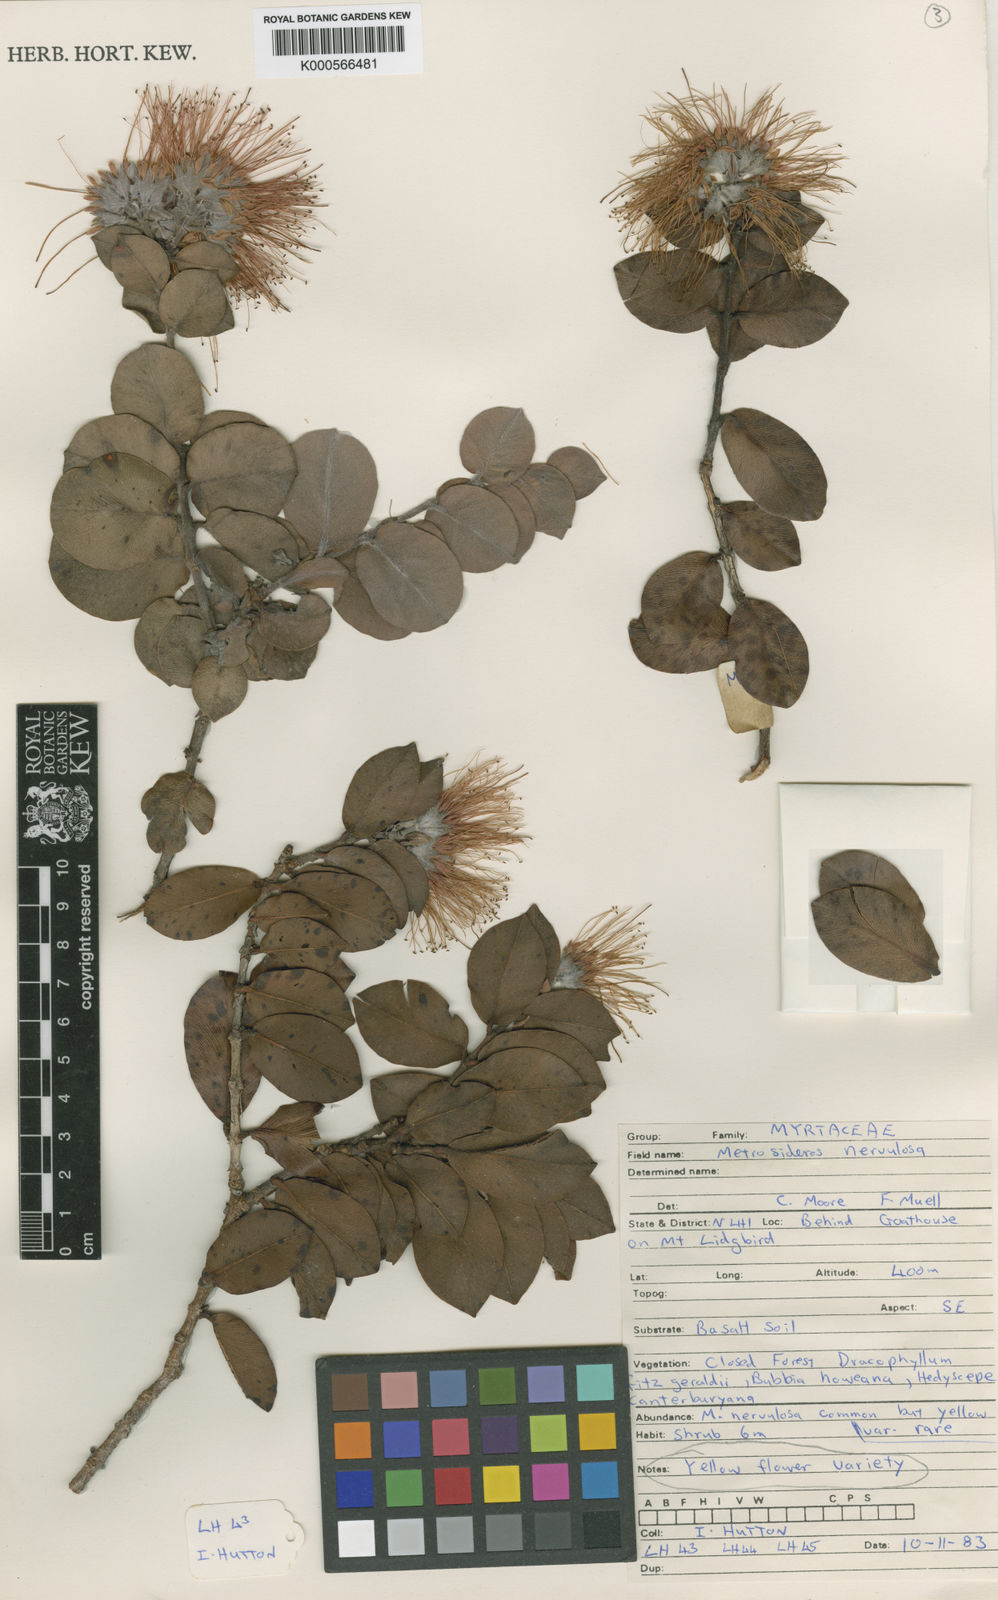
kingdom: Plantae
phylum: Tracheophyta
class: Magnoliopsida
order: Myrtales
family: Myrtaceae
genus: Metrosideros
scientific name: Metrosideros nervulosa
